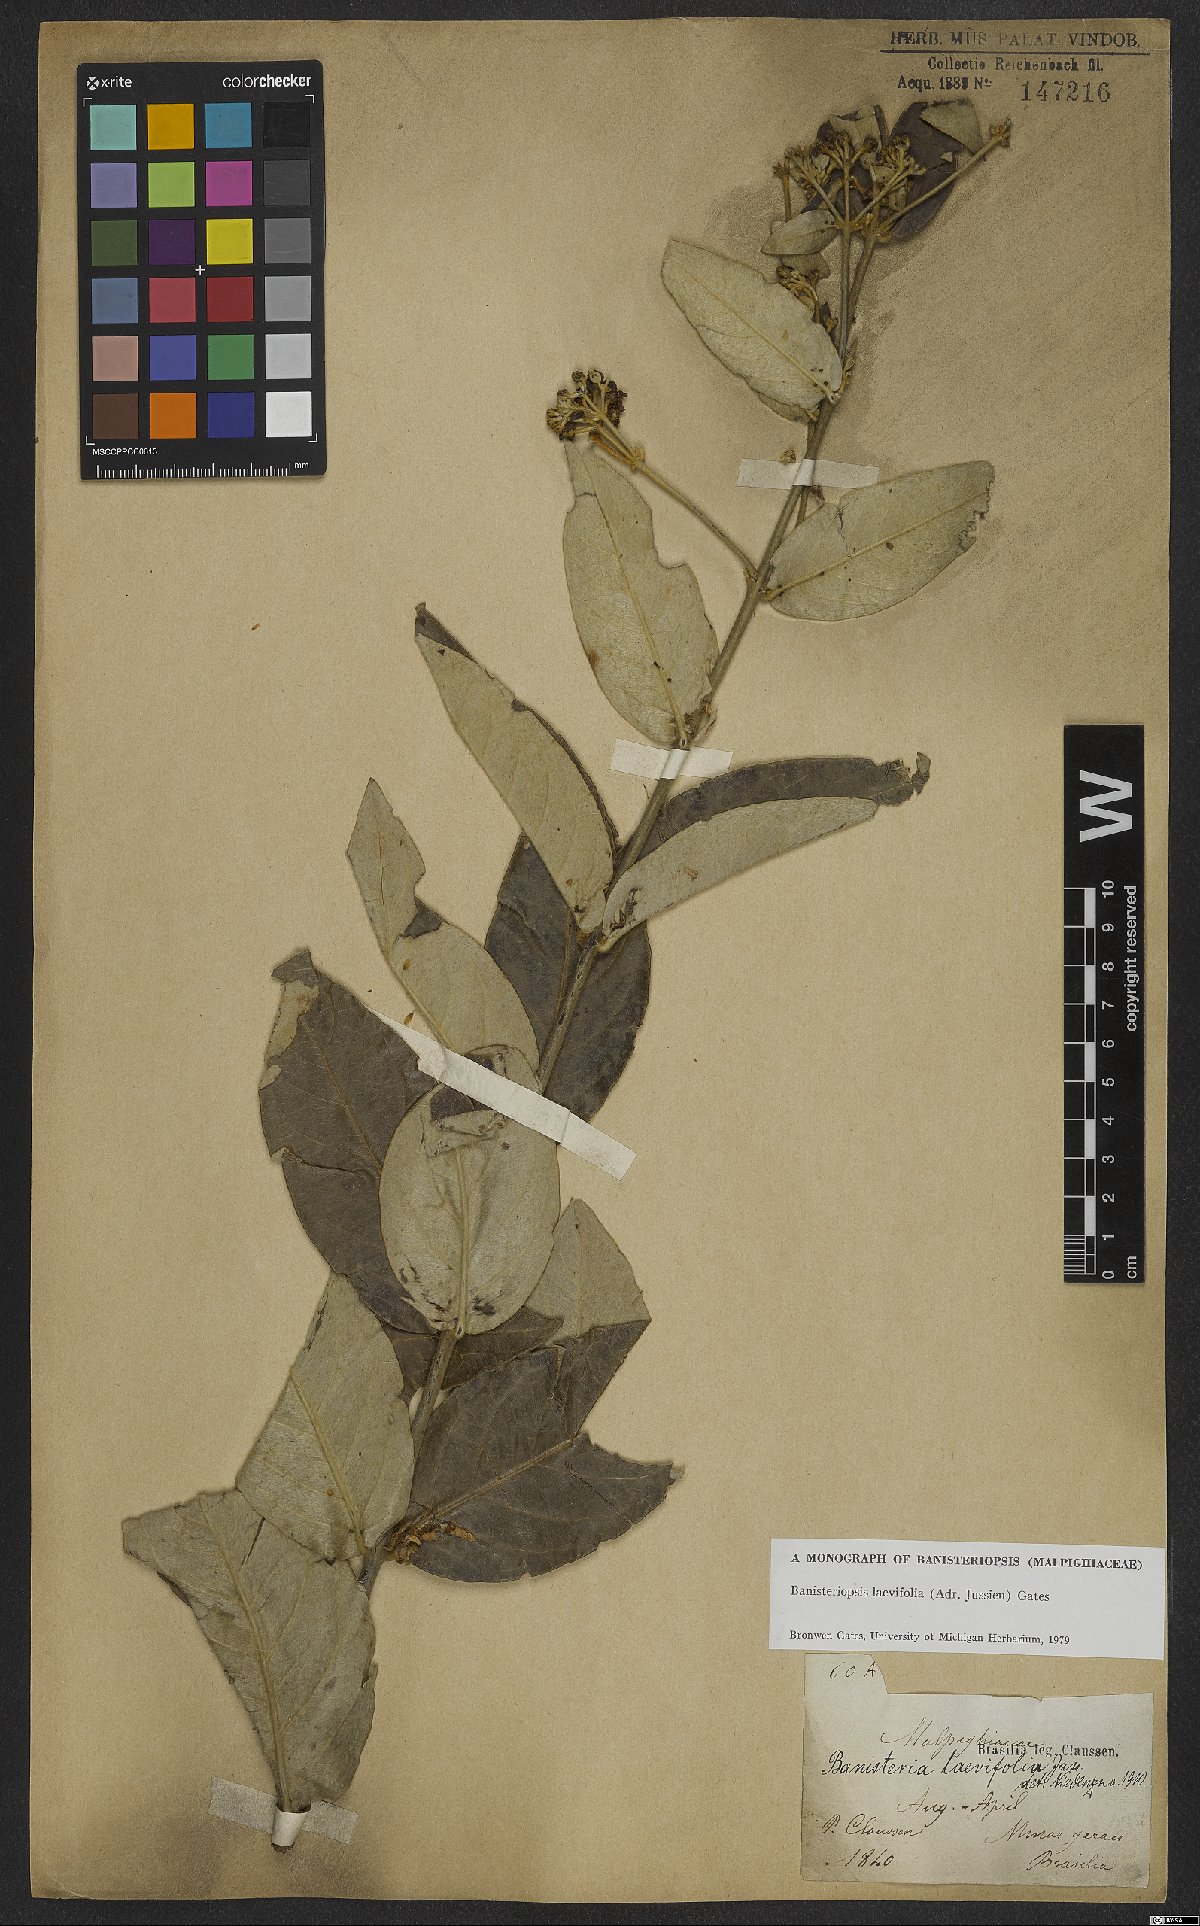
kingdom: Plantae
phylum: Tracheophyta
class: Magnoliopsida
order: Malpighiales
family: Malpighiaceae
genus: Banisteriopsis
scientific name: Banisteriopsis laevifolia
